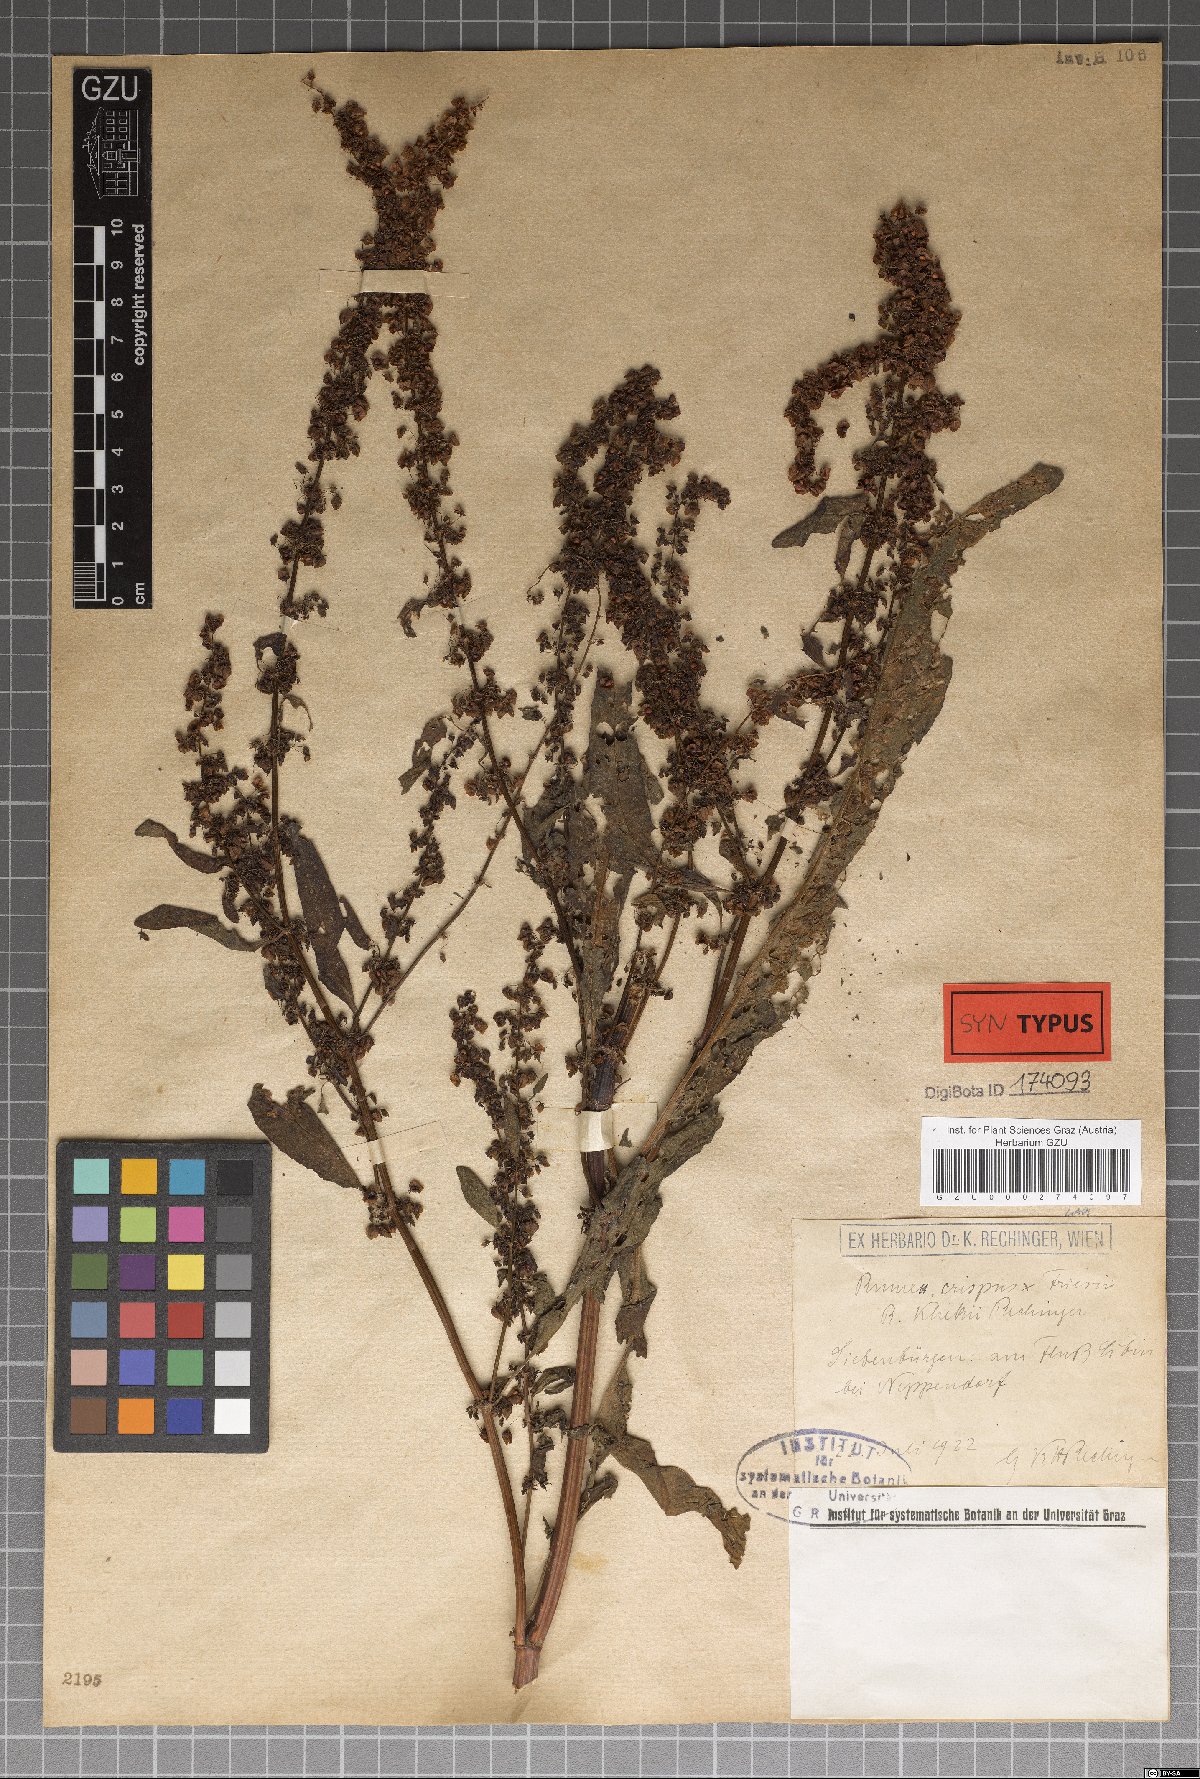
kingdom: Plantae
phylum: Tracheophyta
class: Magnoliopsida
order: Caryophyllales
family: Polygonaceae
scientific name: Polygonaceae
